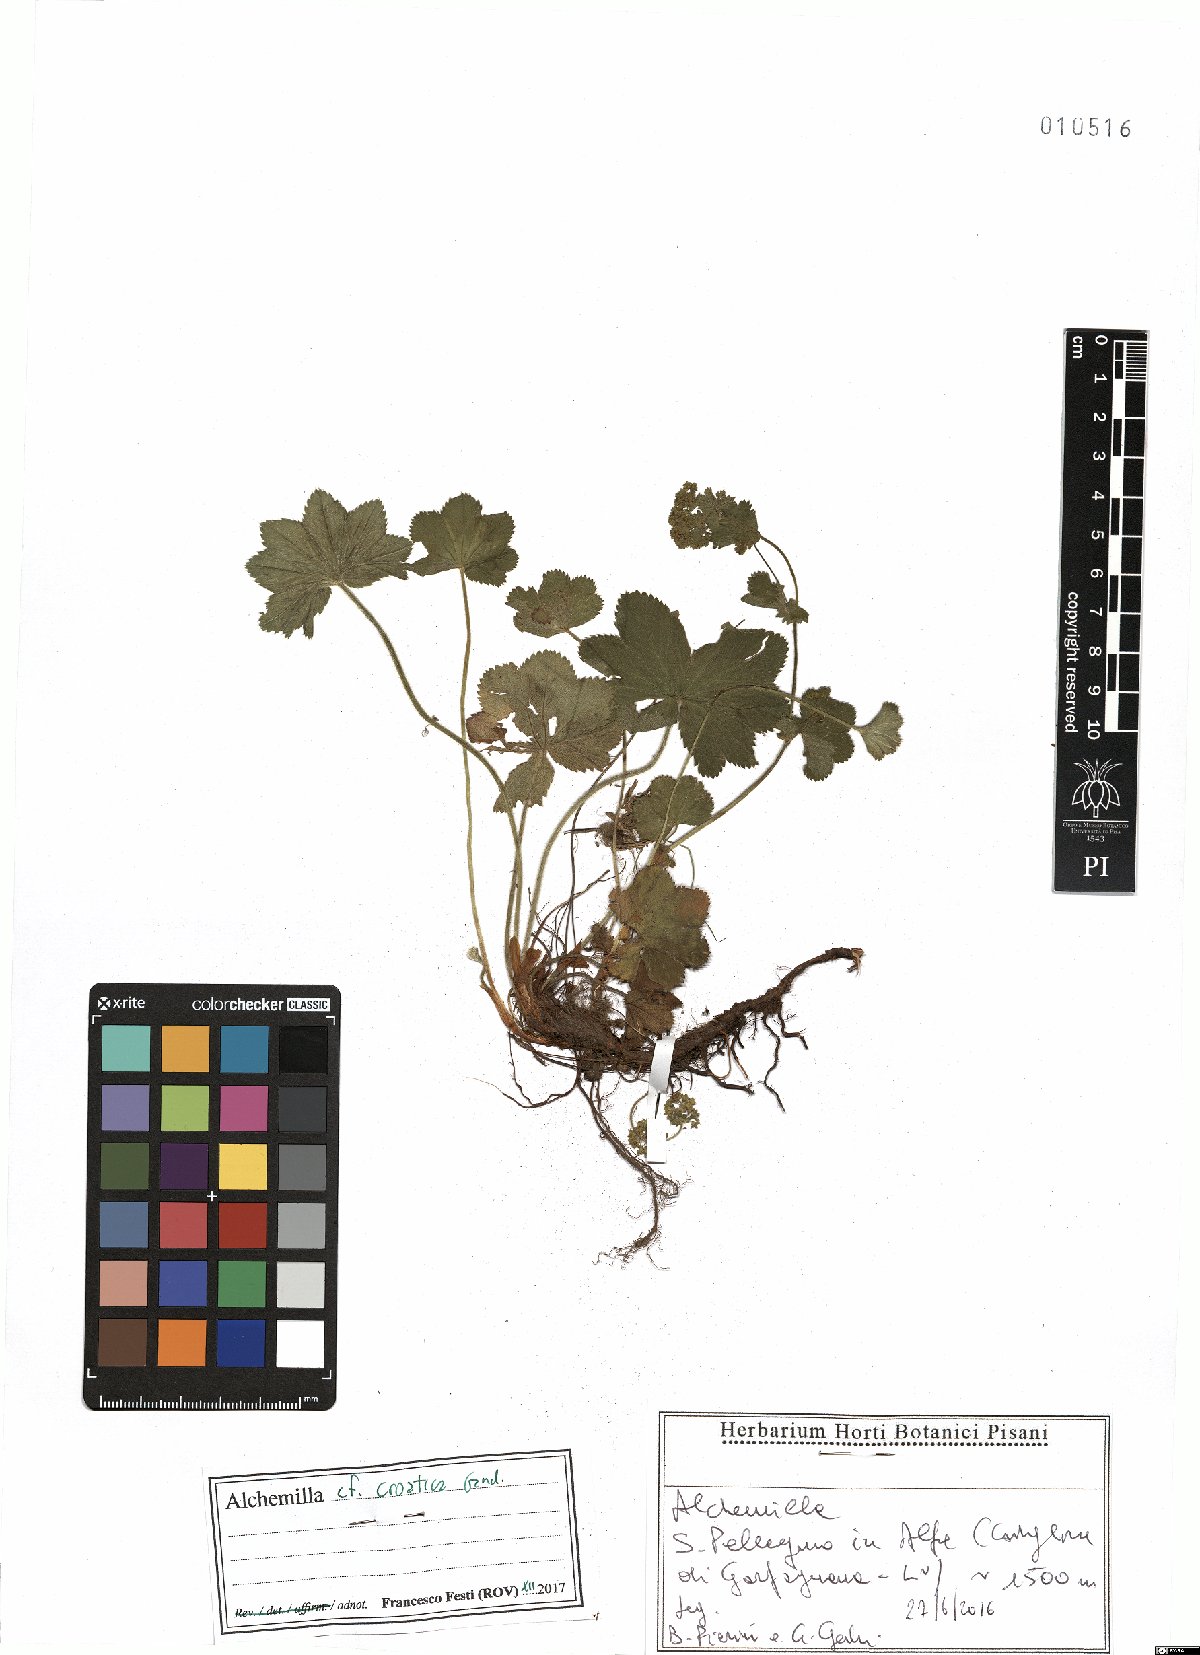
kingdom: Plantae
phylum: Tracheophyta
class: Magnoliopsida
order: Rosales
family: Rosaceae
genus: Alchemilla
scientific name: Alchemilla croatica
